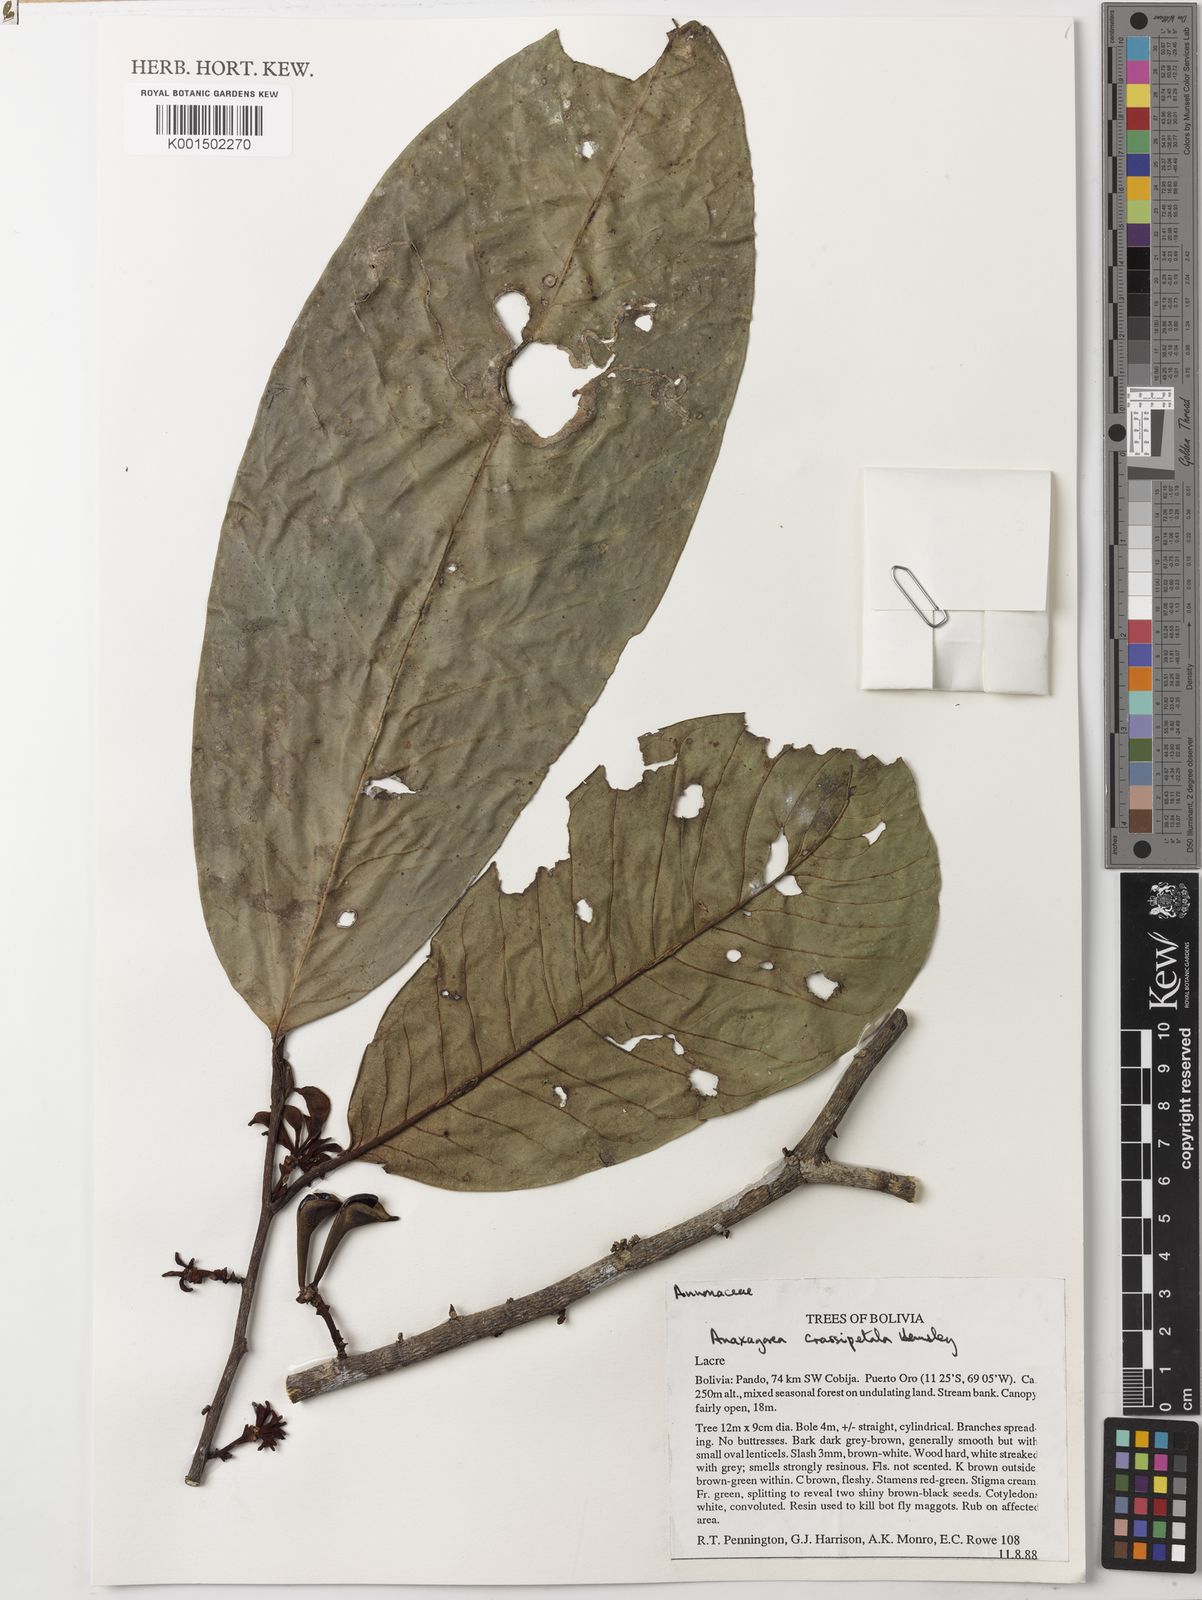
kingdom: Plantae
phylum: Tracheophyta
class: Magnoliopsida
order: Magnoliales
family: Annonaceae
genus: Anaxagorea
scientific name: Anaxagorea crassipetala
